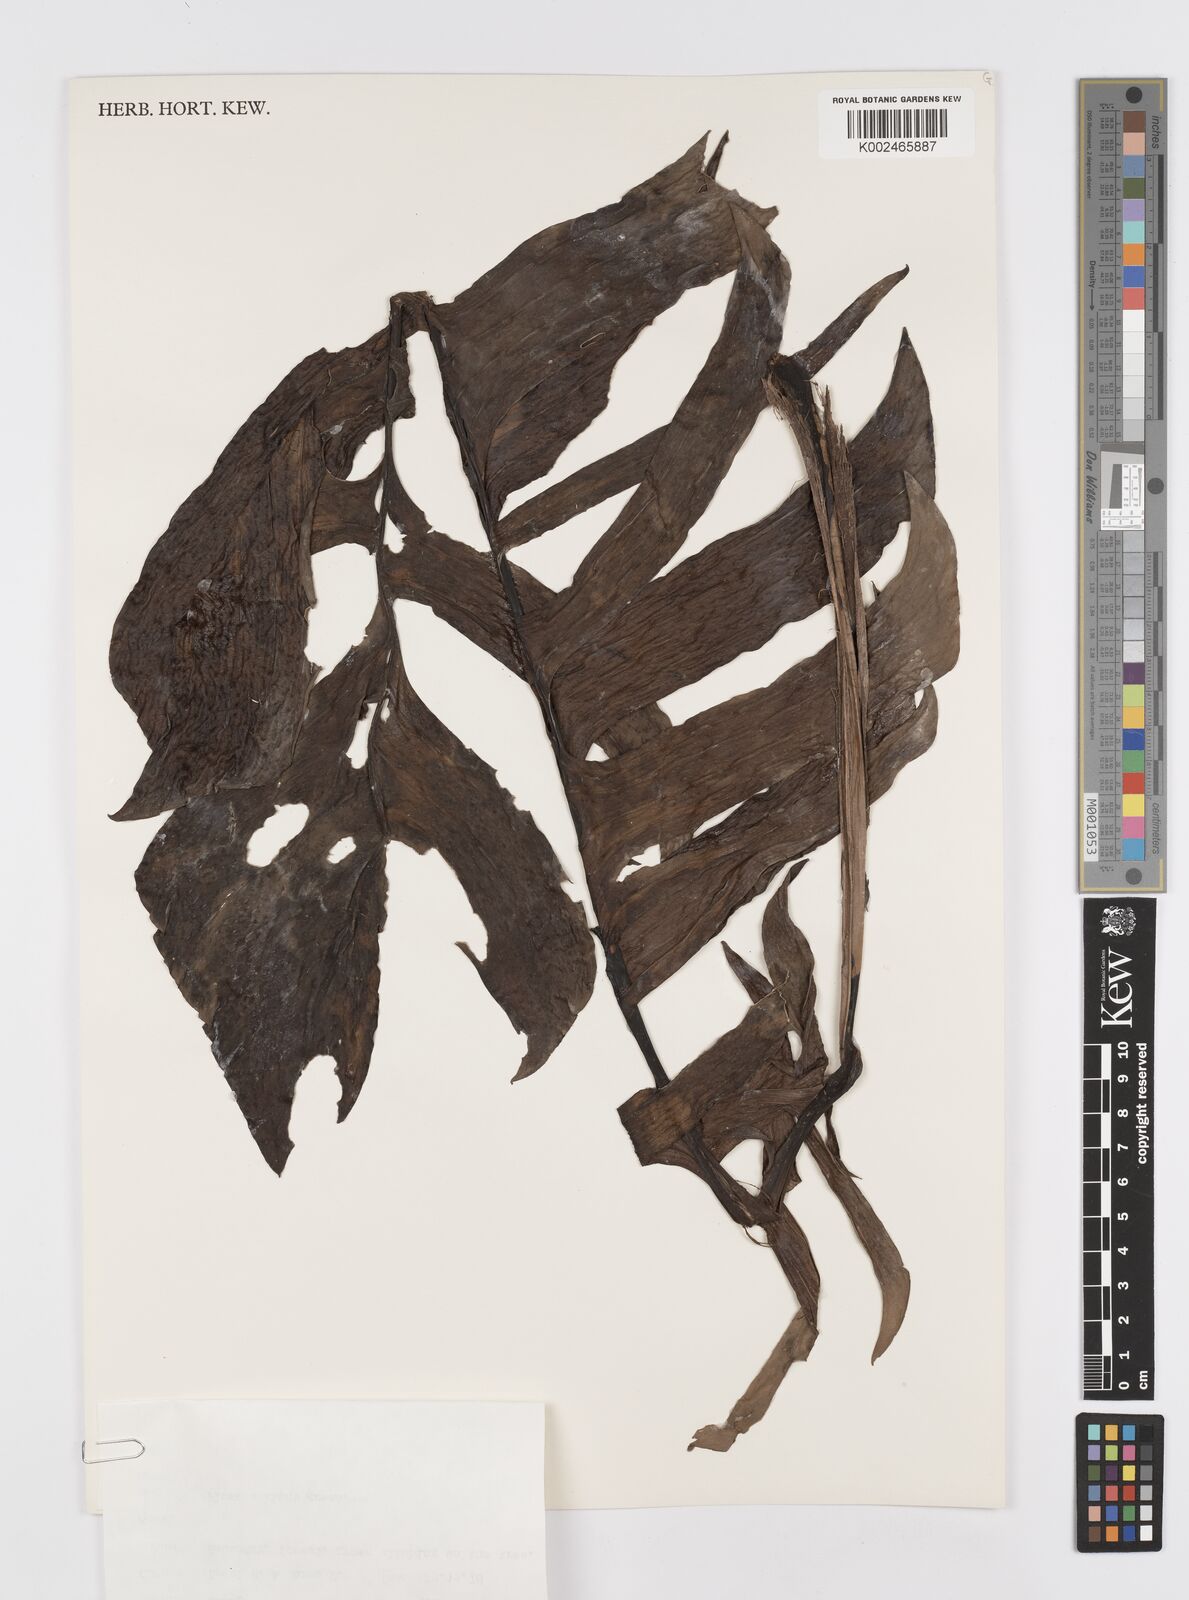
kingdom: Plantae
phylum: Tracheophyta
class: Liliopsida
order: Alismatales
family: Araceae
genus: Rhaphidophora
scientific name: Rhaphidophora korthalsii
